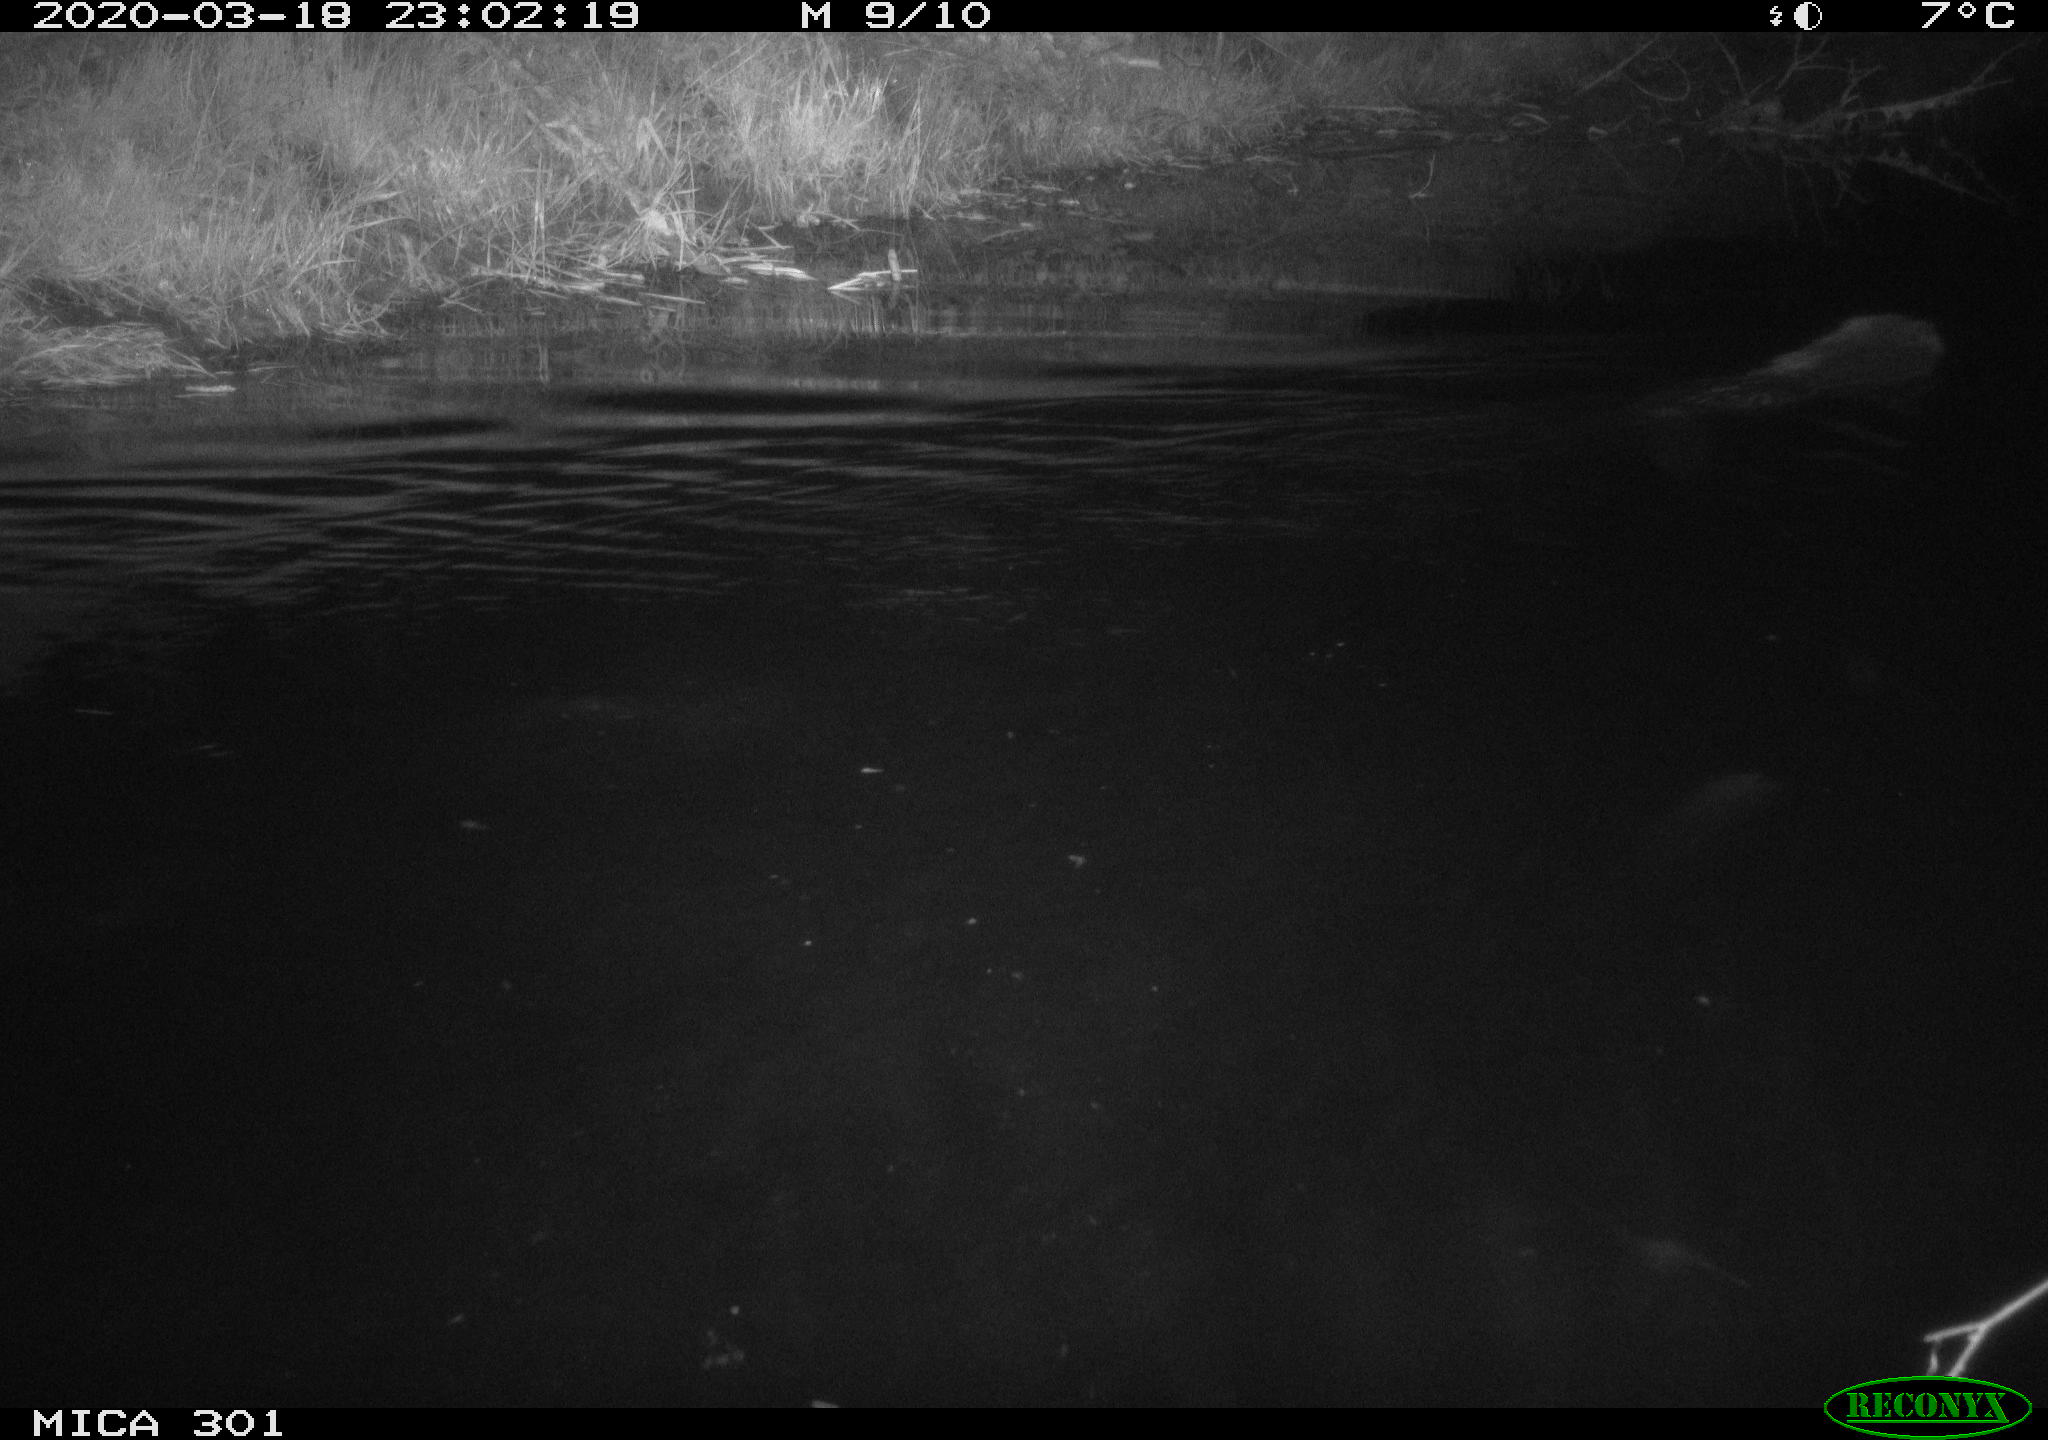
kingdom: Animalia
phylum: Chordata
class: Mammalia
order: Rodentia
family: Castoridae
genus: Castor
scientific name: Castor fiber
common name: Eurasian beaver
